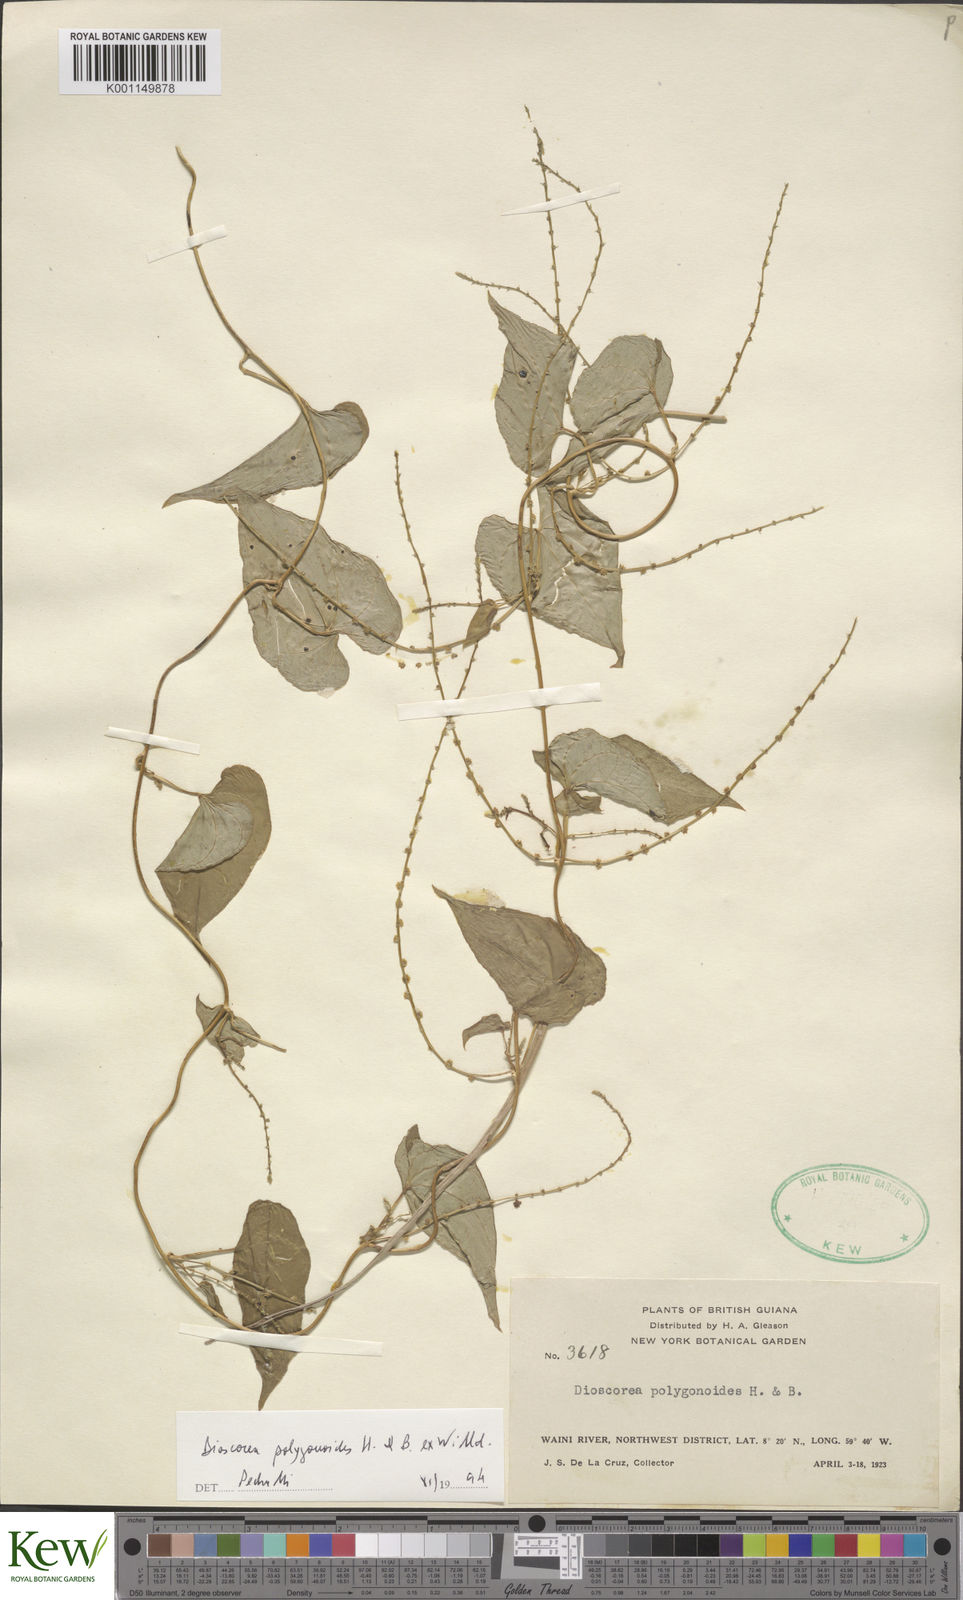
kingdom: Plantae
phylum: Tracheophyta
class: Liliopsida
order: Dioscoreales
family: Dioscoreaceae
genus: Dioscorea
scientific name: Dioscorea polygonoides
